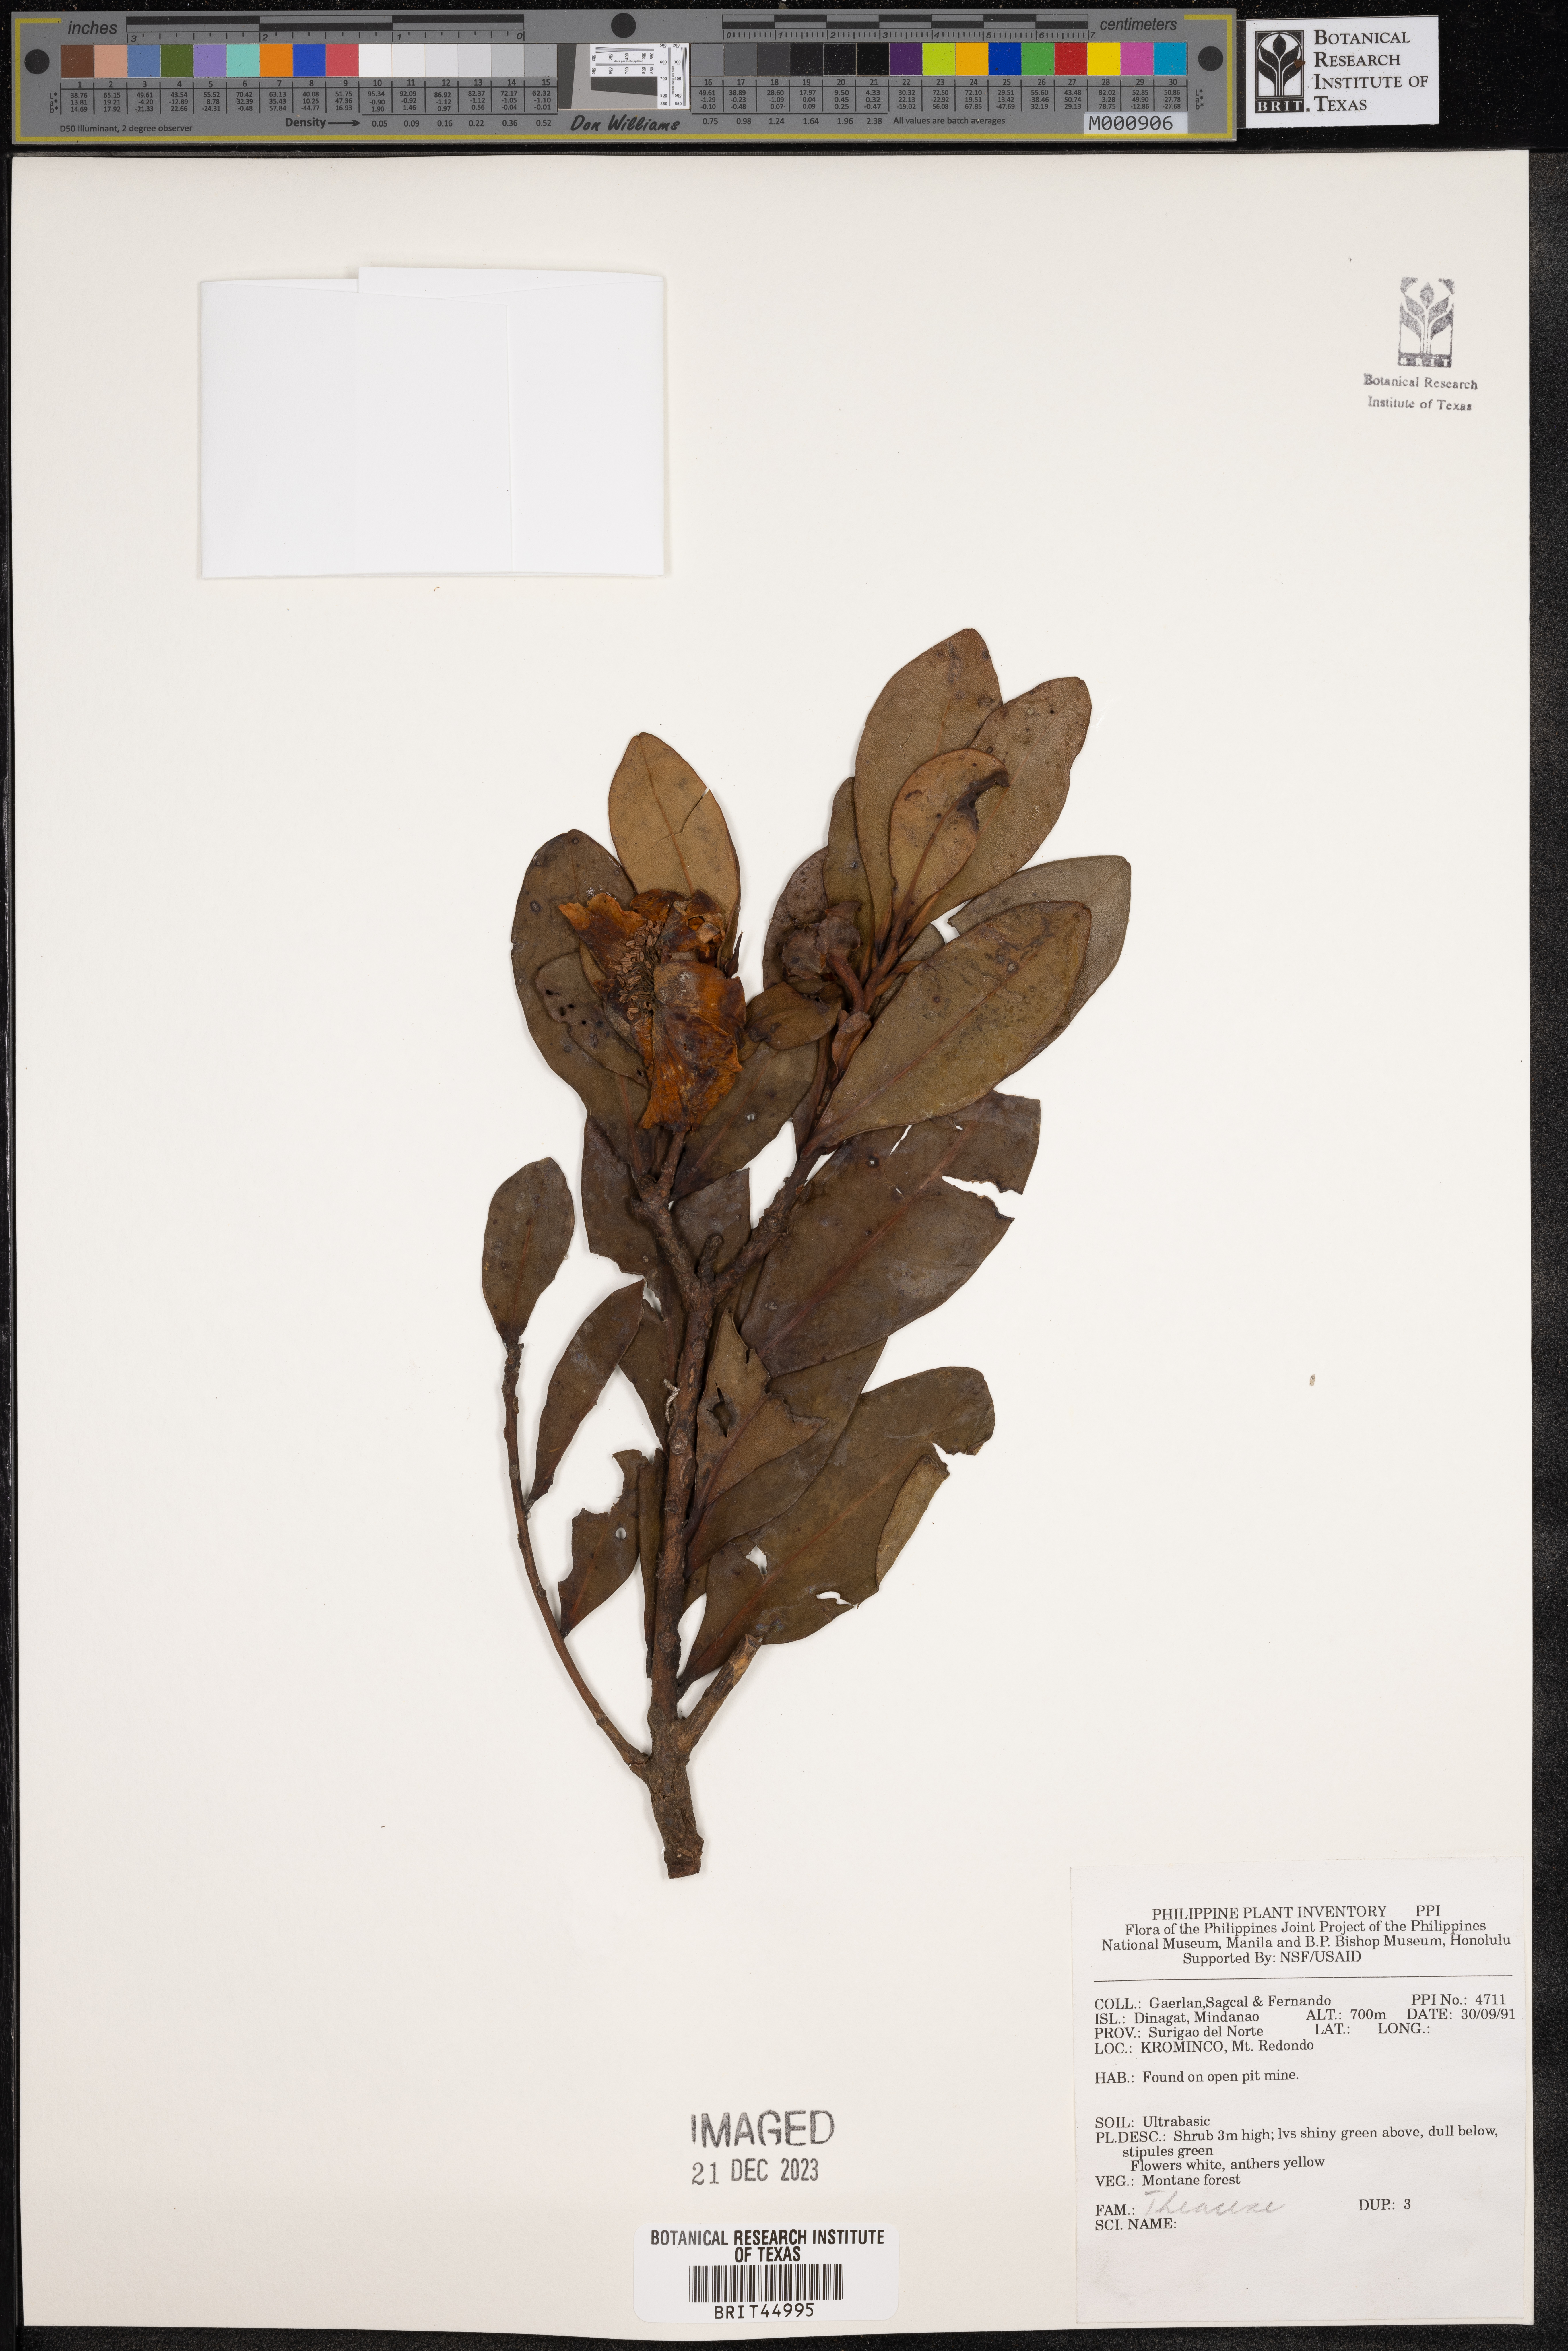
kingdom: Plantae
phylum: Tracheophyta
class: Magnoliopsida
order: Ericales
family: Theaceae
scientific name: Theaceae
